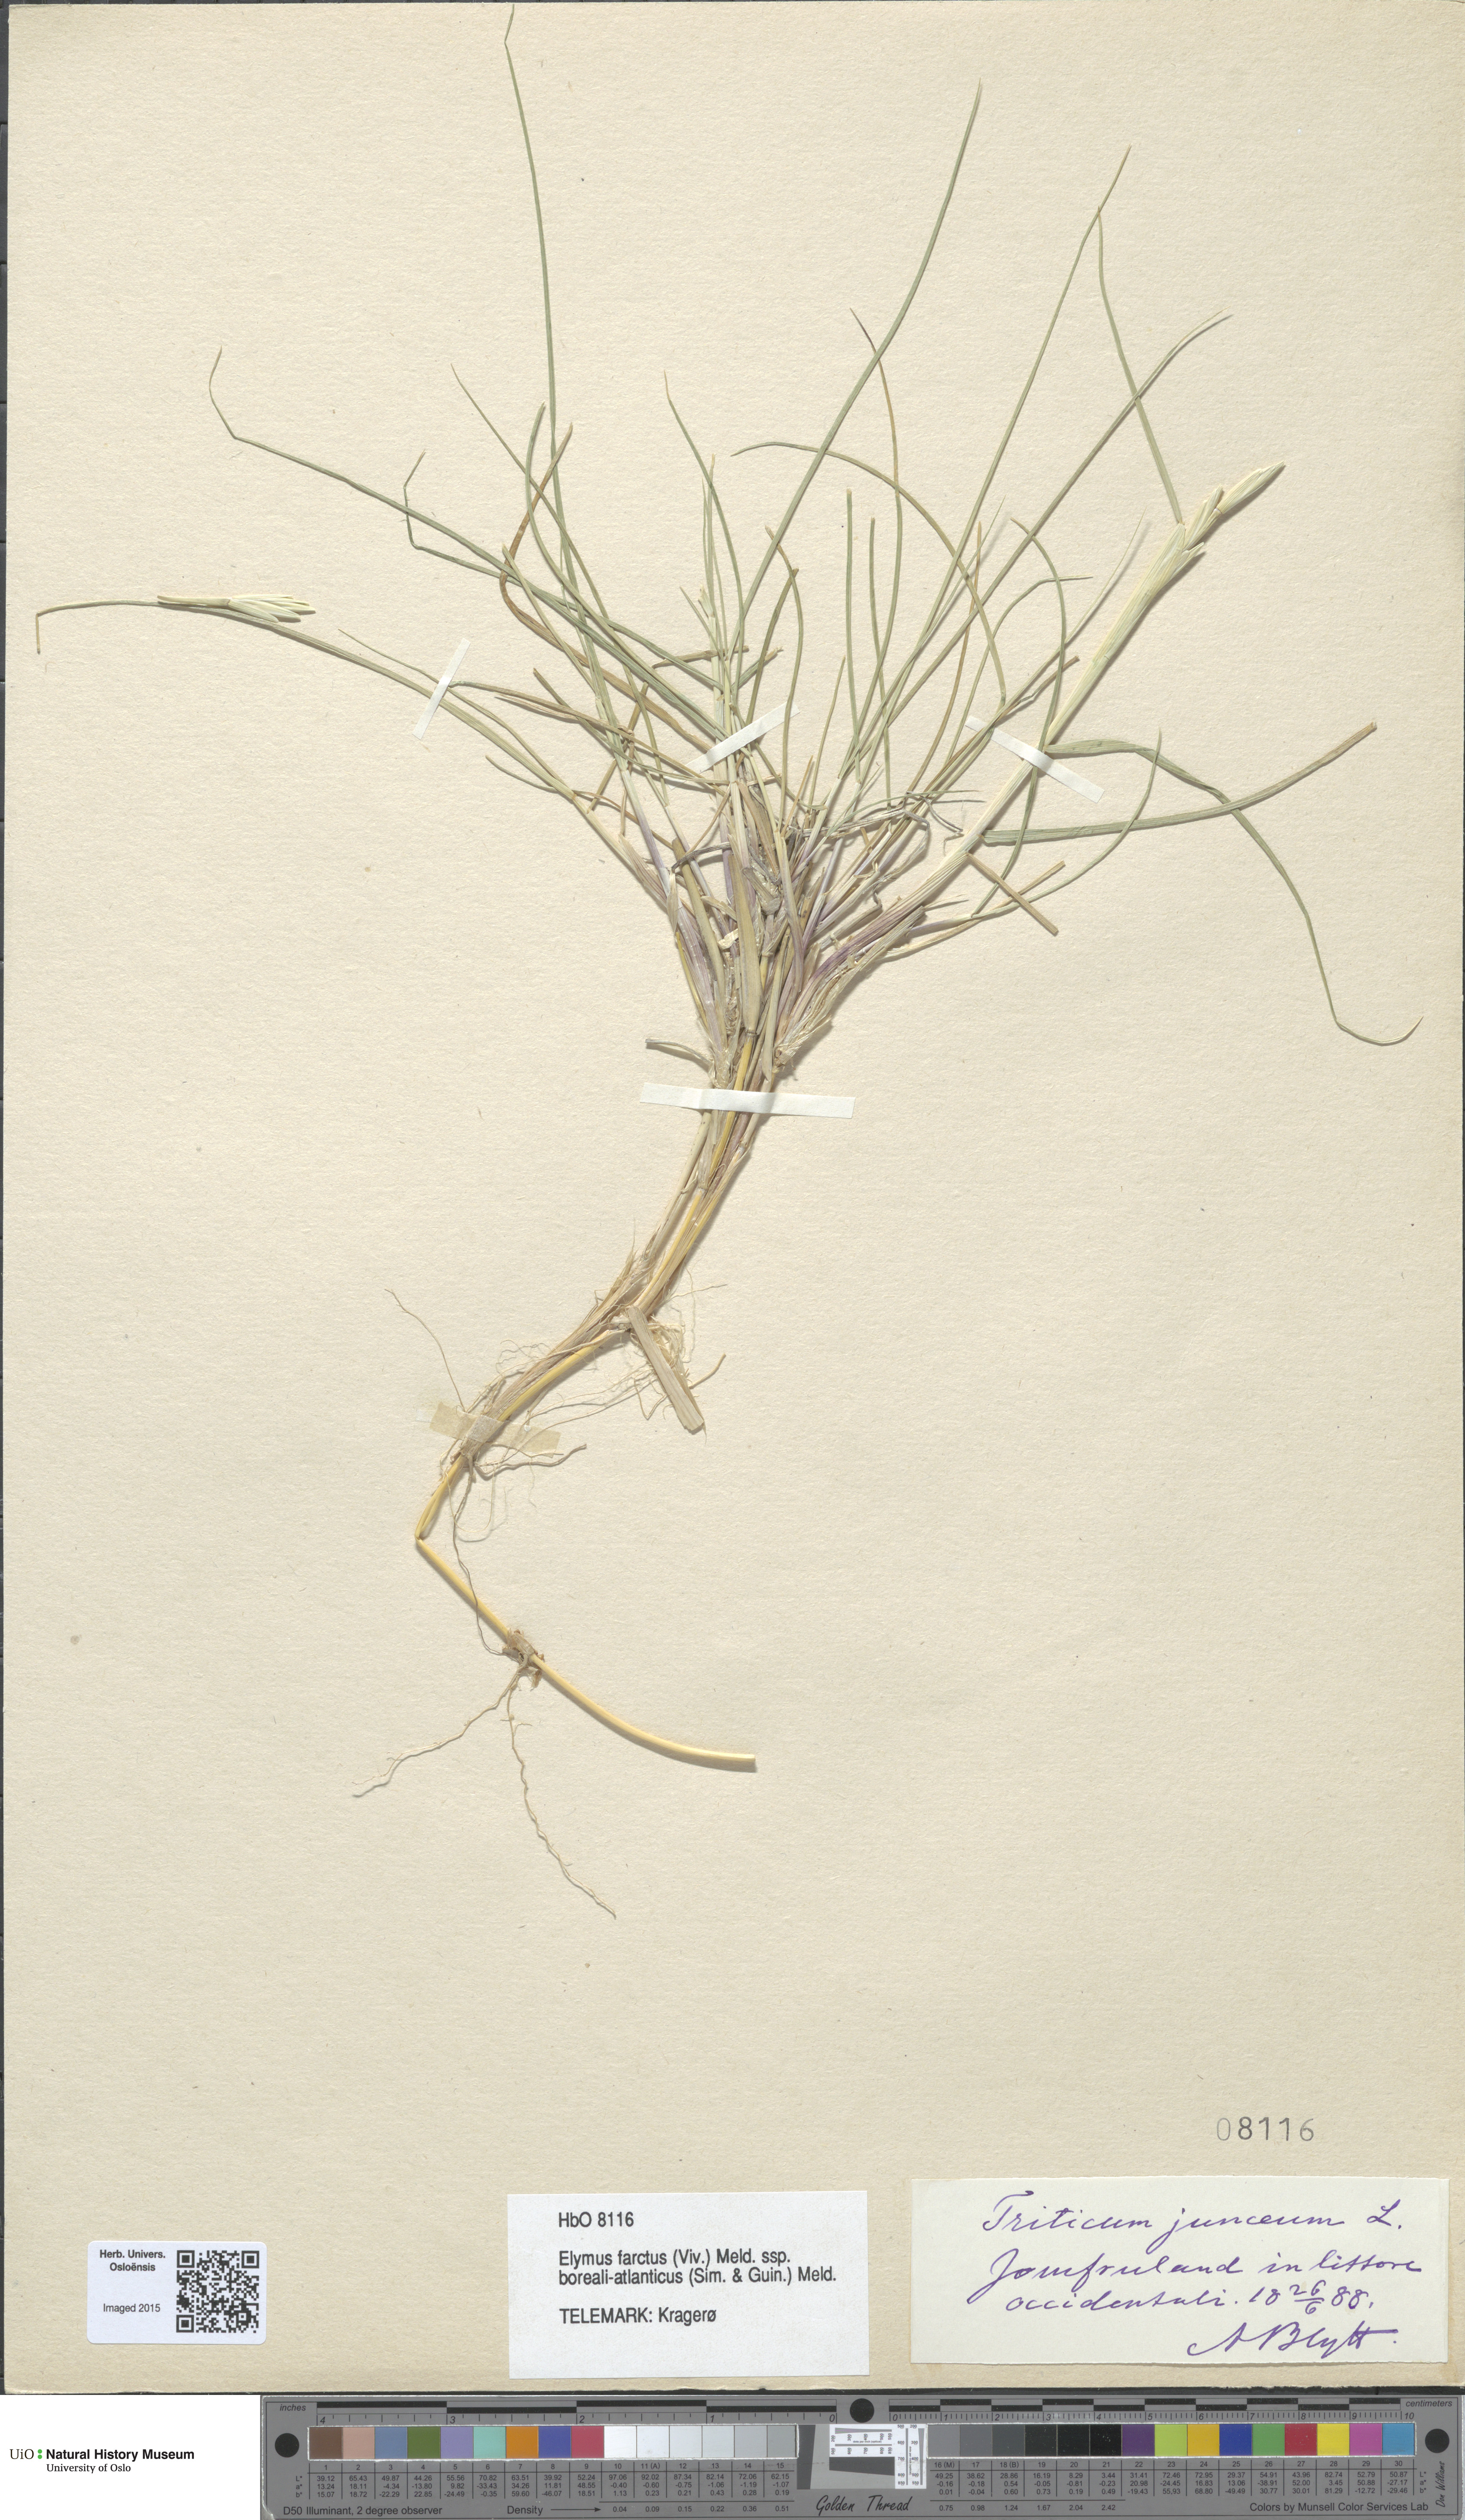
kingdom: Plantae
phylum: Tracheophyta
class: Liliopsida
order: Poales
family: Poaceae
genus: Thinopyrum
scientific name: Thinopyrum junceiforme
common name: Sea couch
